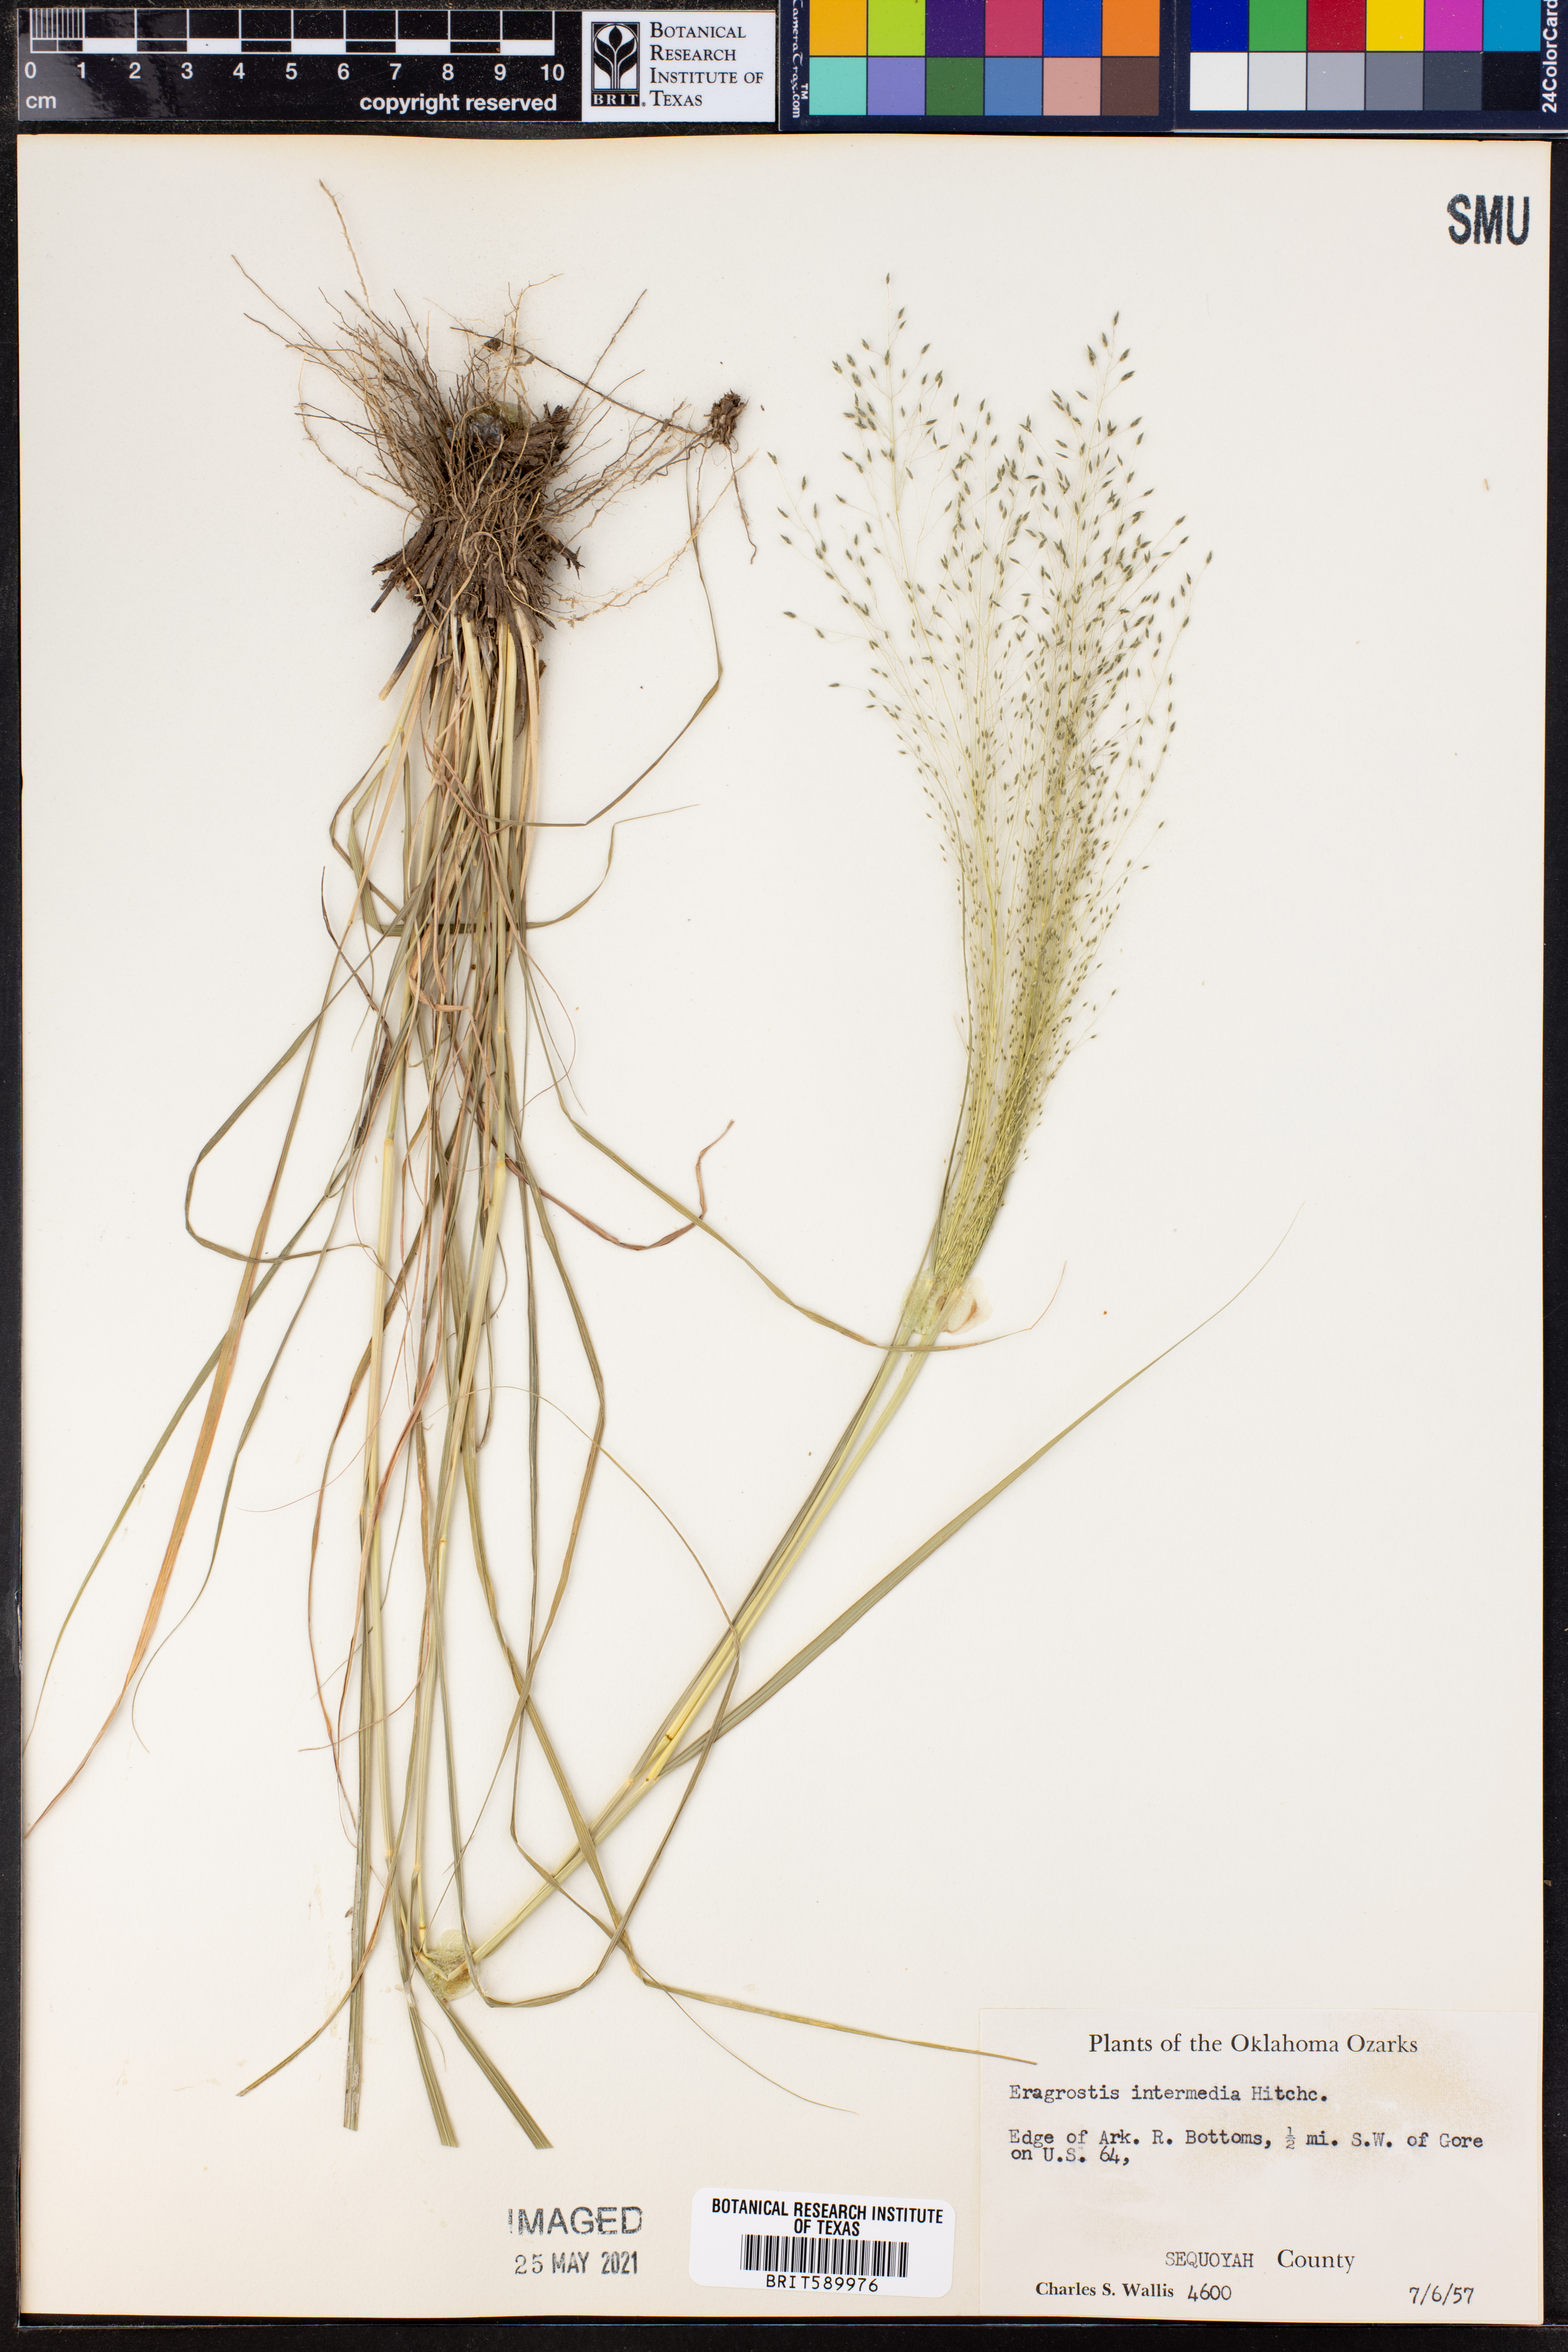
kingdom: Plantae
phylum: Tracheophyta
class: Liliopsida
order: Poales
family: Poaceae
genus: Eragrostis
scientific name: Eragrostis intermedia
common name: Plains love grass
